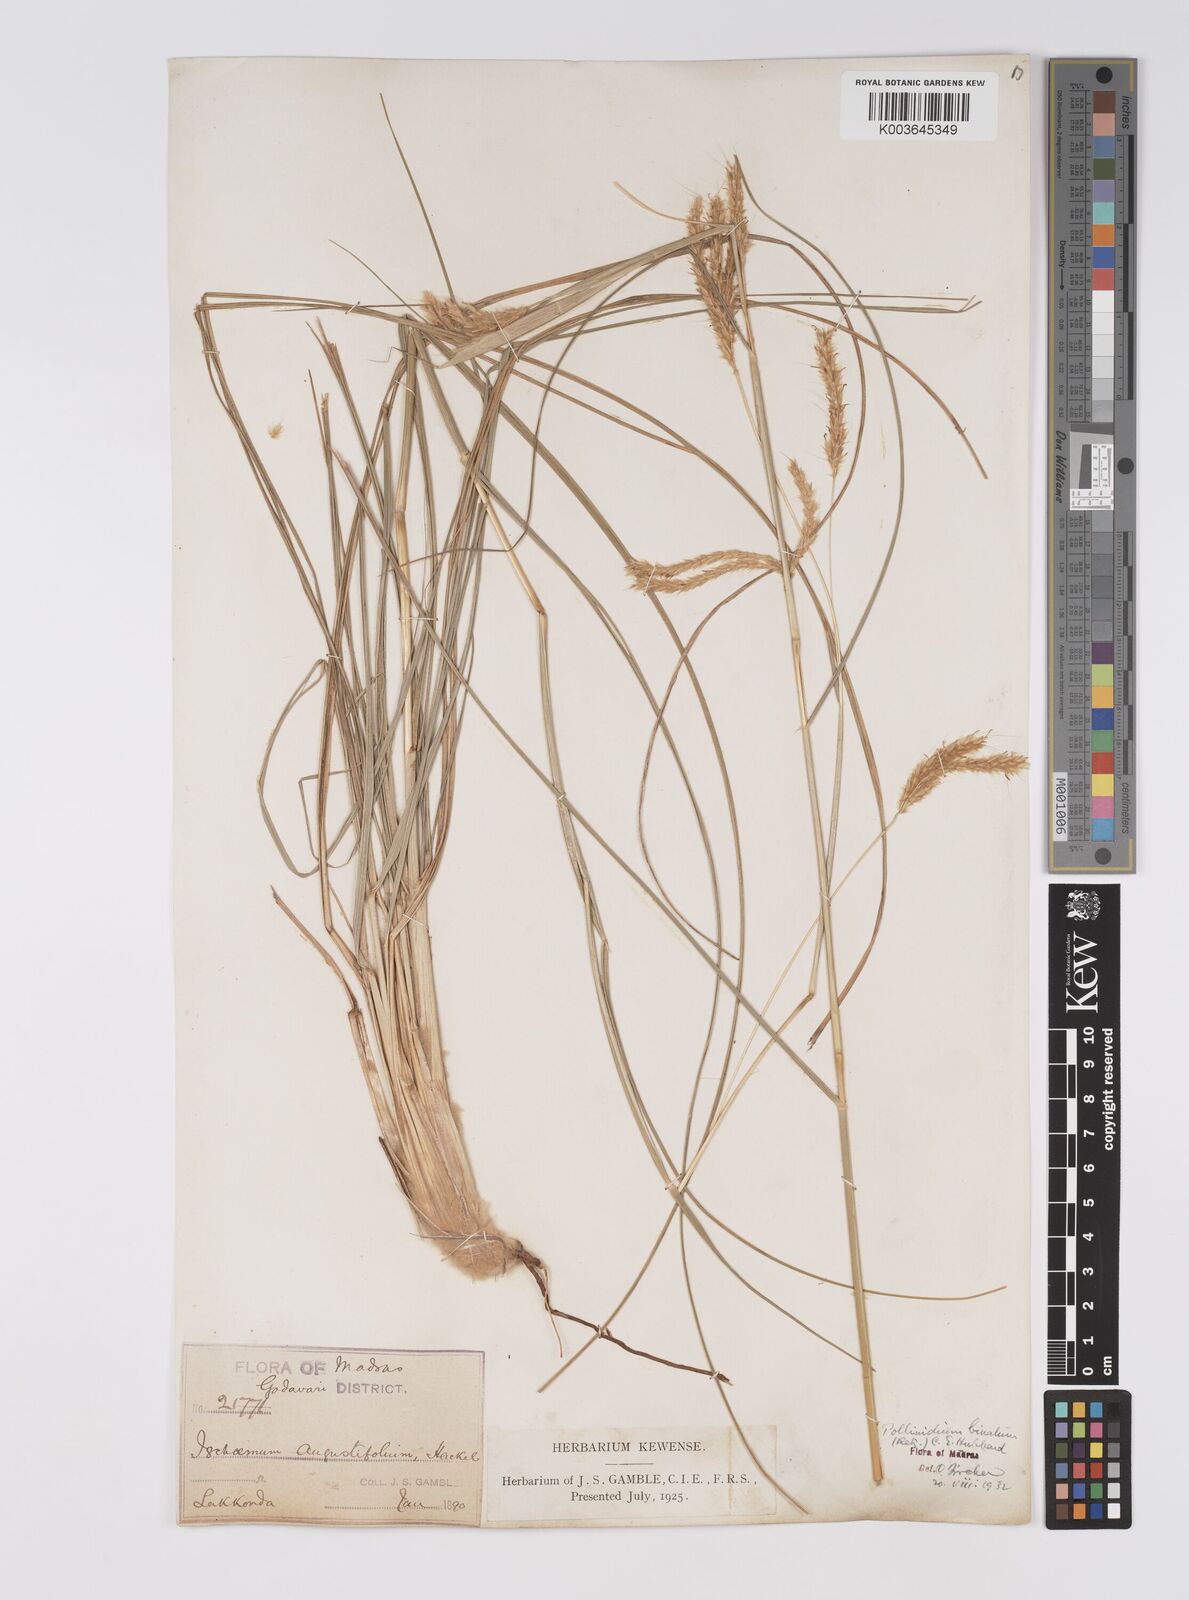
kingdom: Plantae
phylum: Tracheophyta
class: Liliopsida
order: Poales
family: Poaceae
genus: Eulaliopsis
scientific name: Eulaliopsis binata
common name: Baib grass
